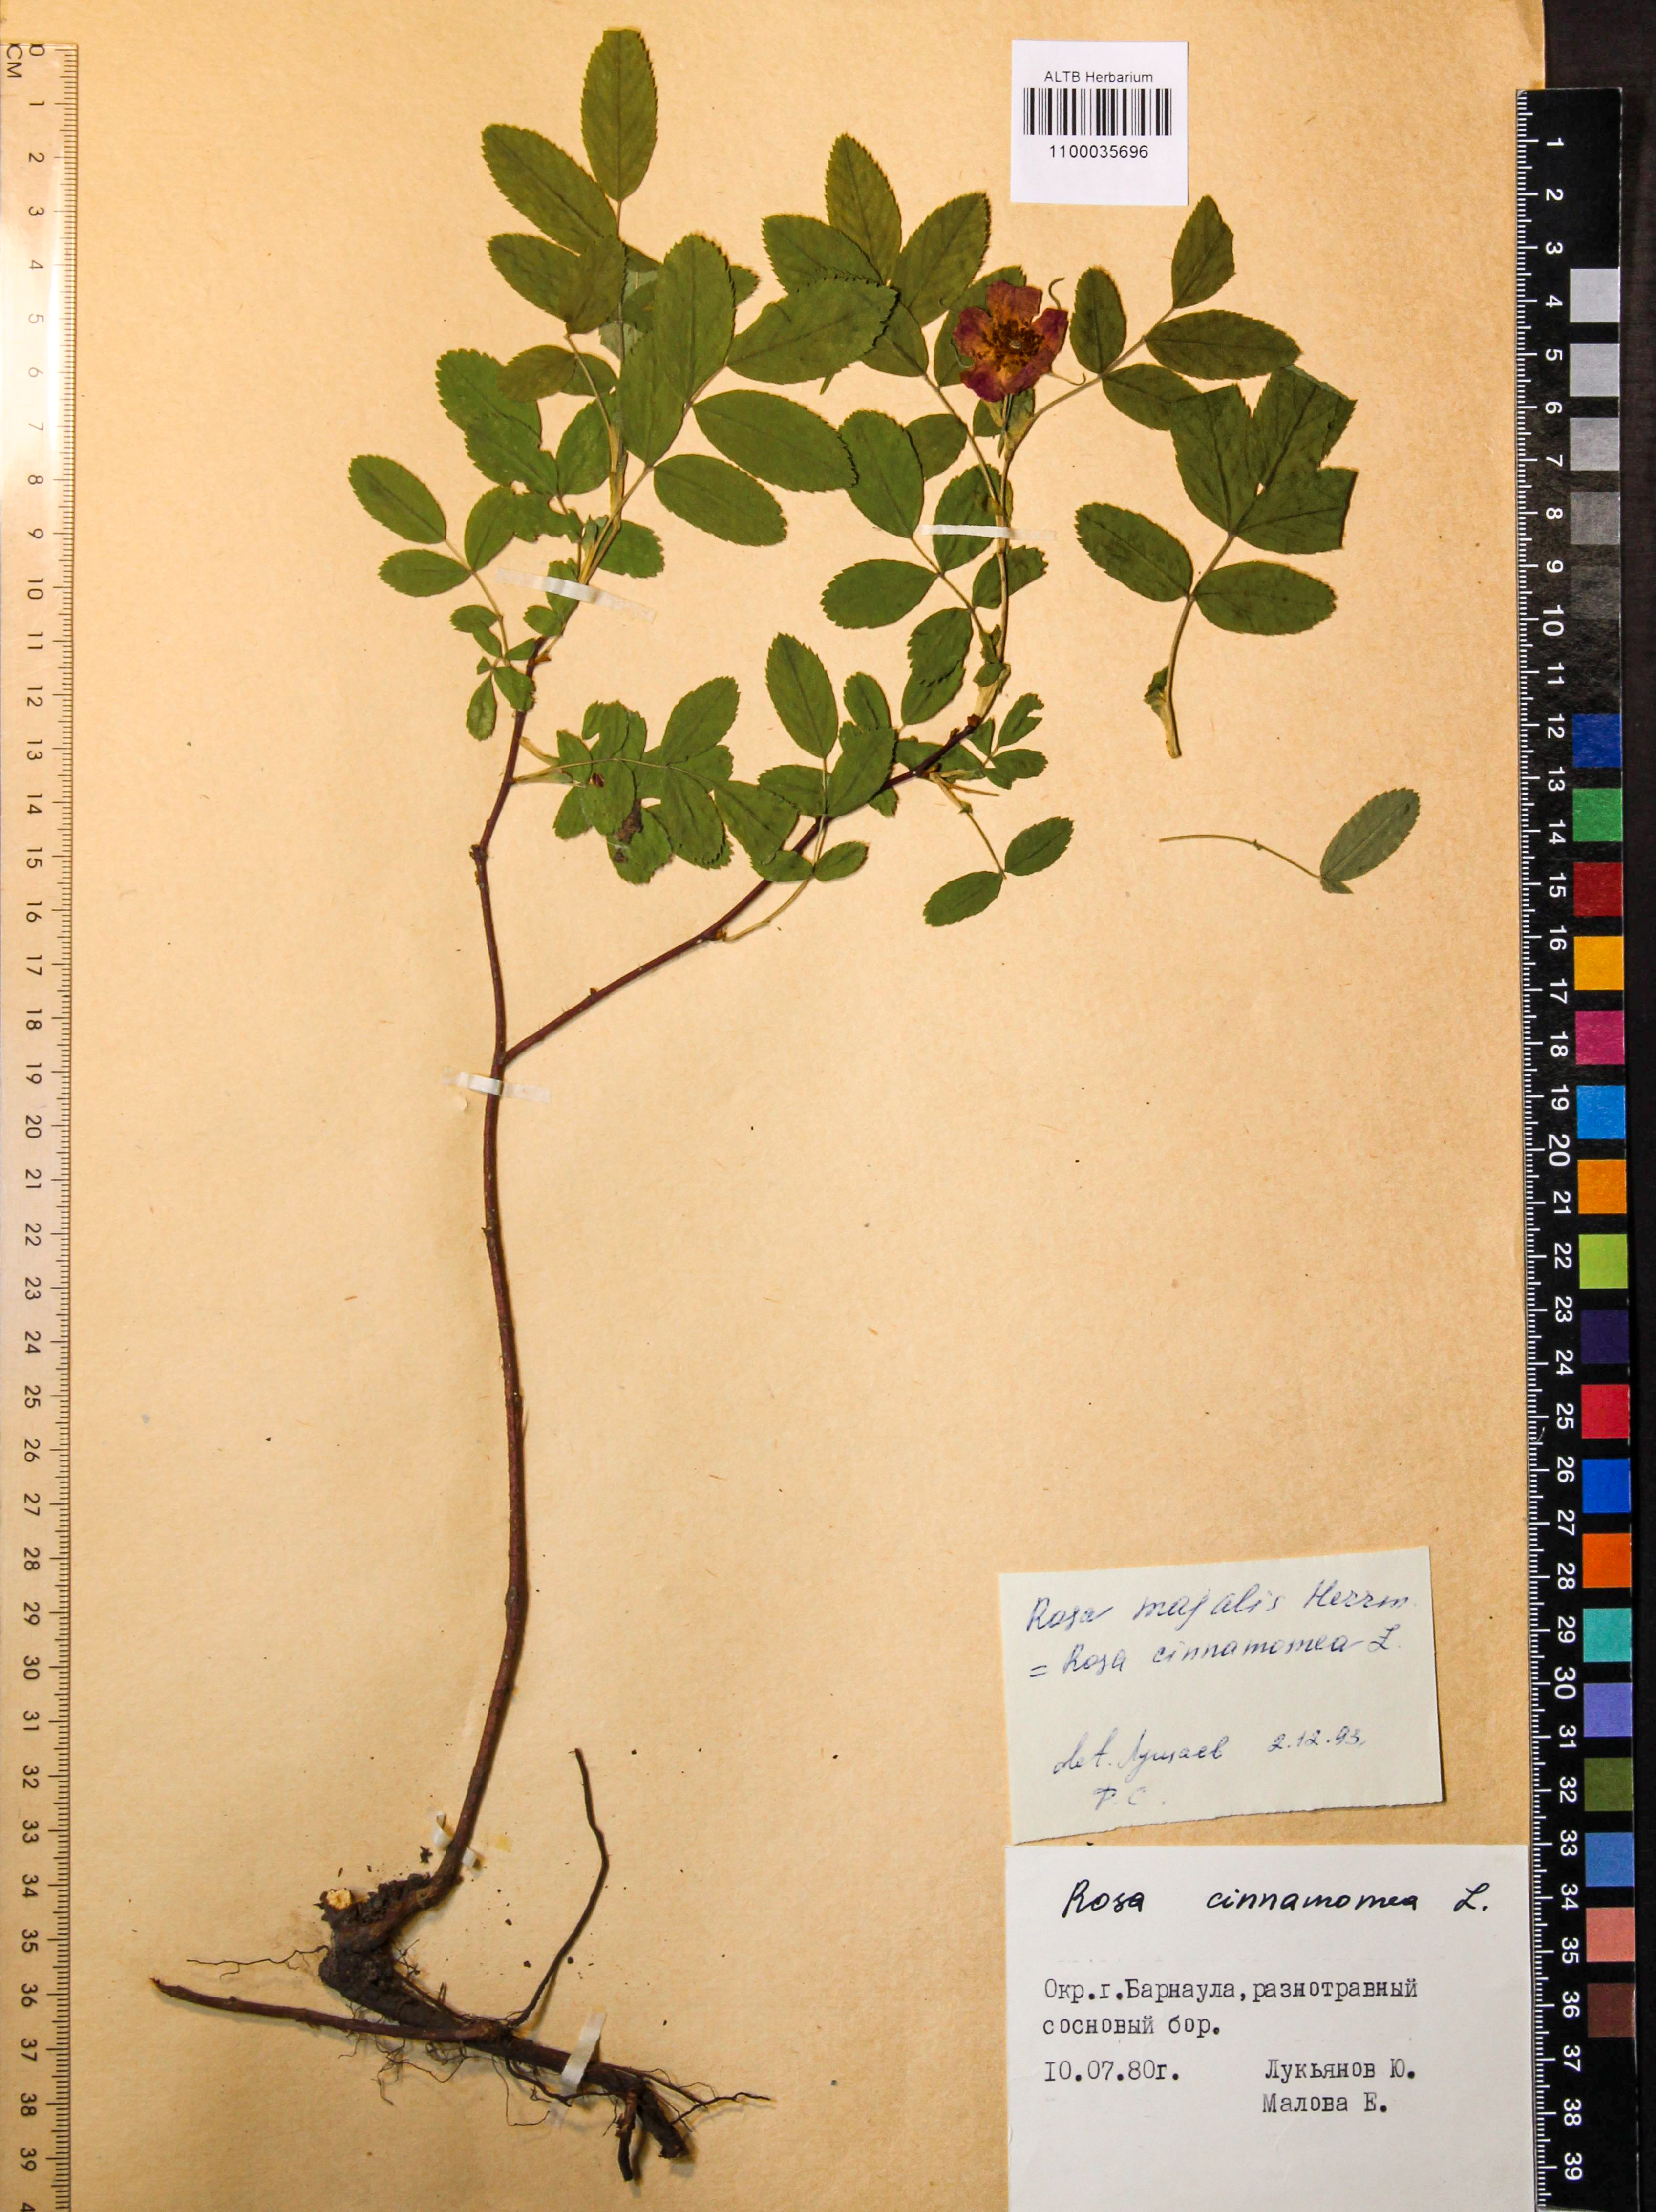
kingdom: Plantae
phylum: Tracheophyta
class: Magnoliopsida
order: Rosales
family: Rosaceae
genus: Rosa
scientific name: Rosa majalis
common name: Cinnamon rose
